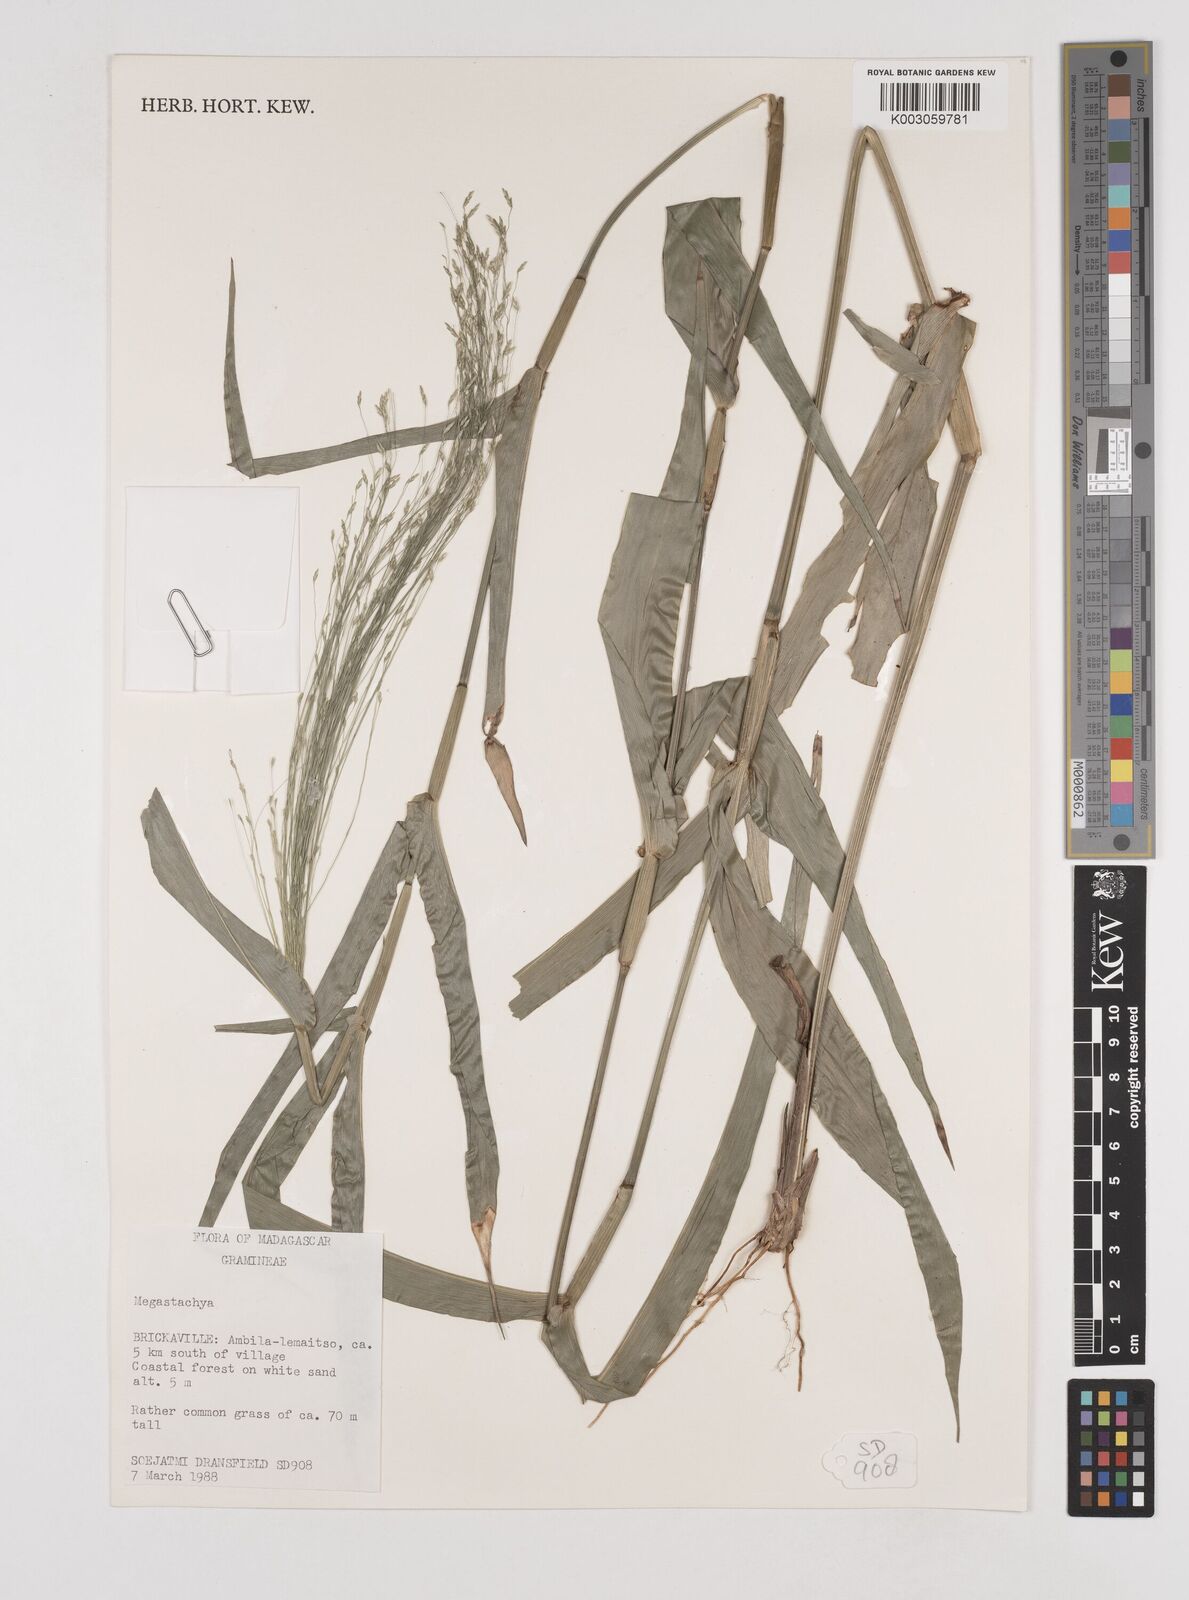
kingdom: Plantae
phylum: Tracheophyta
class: Liliopsida
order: Poales
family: Poaceae
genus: Megastachya
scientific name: Megastachya madagascariensis
